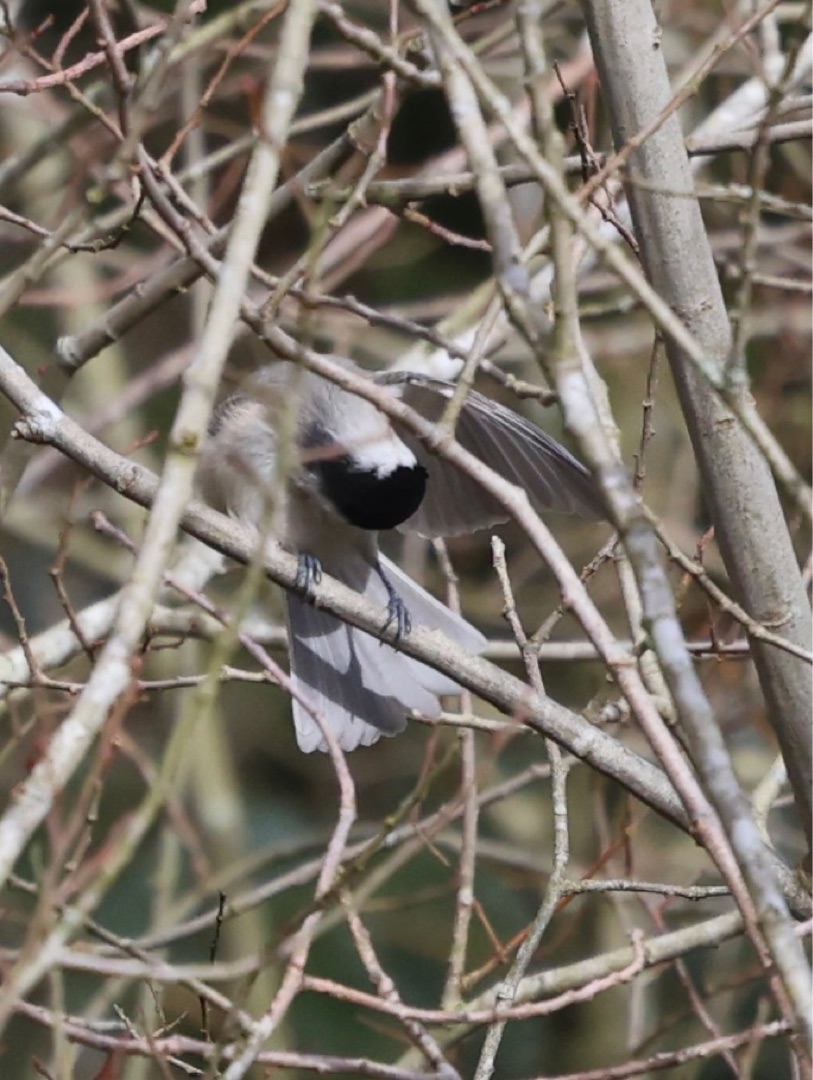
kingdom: Animalia
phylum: Chordata
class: Aves
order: Passeriformes
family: Paridae
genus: Poecile
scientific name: Poecile palustris
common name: Sumpmejse
